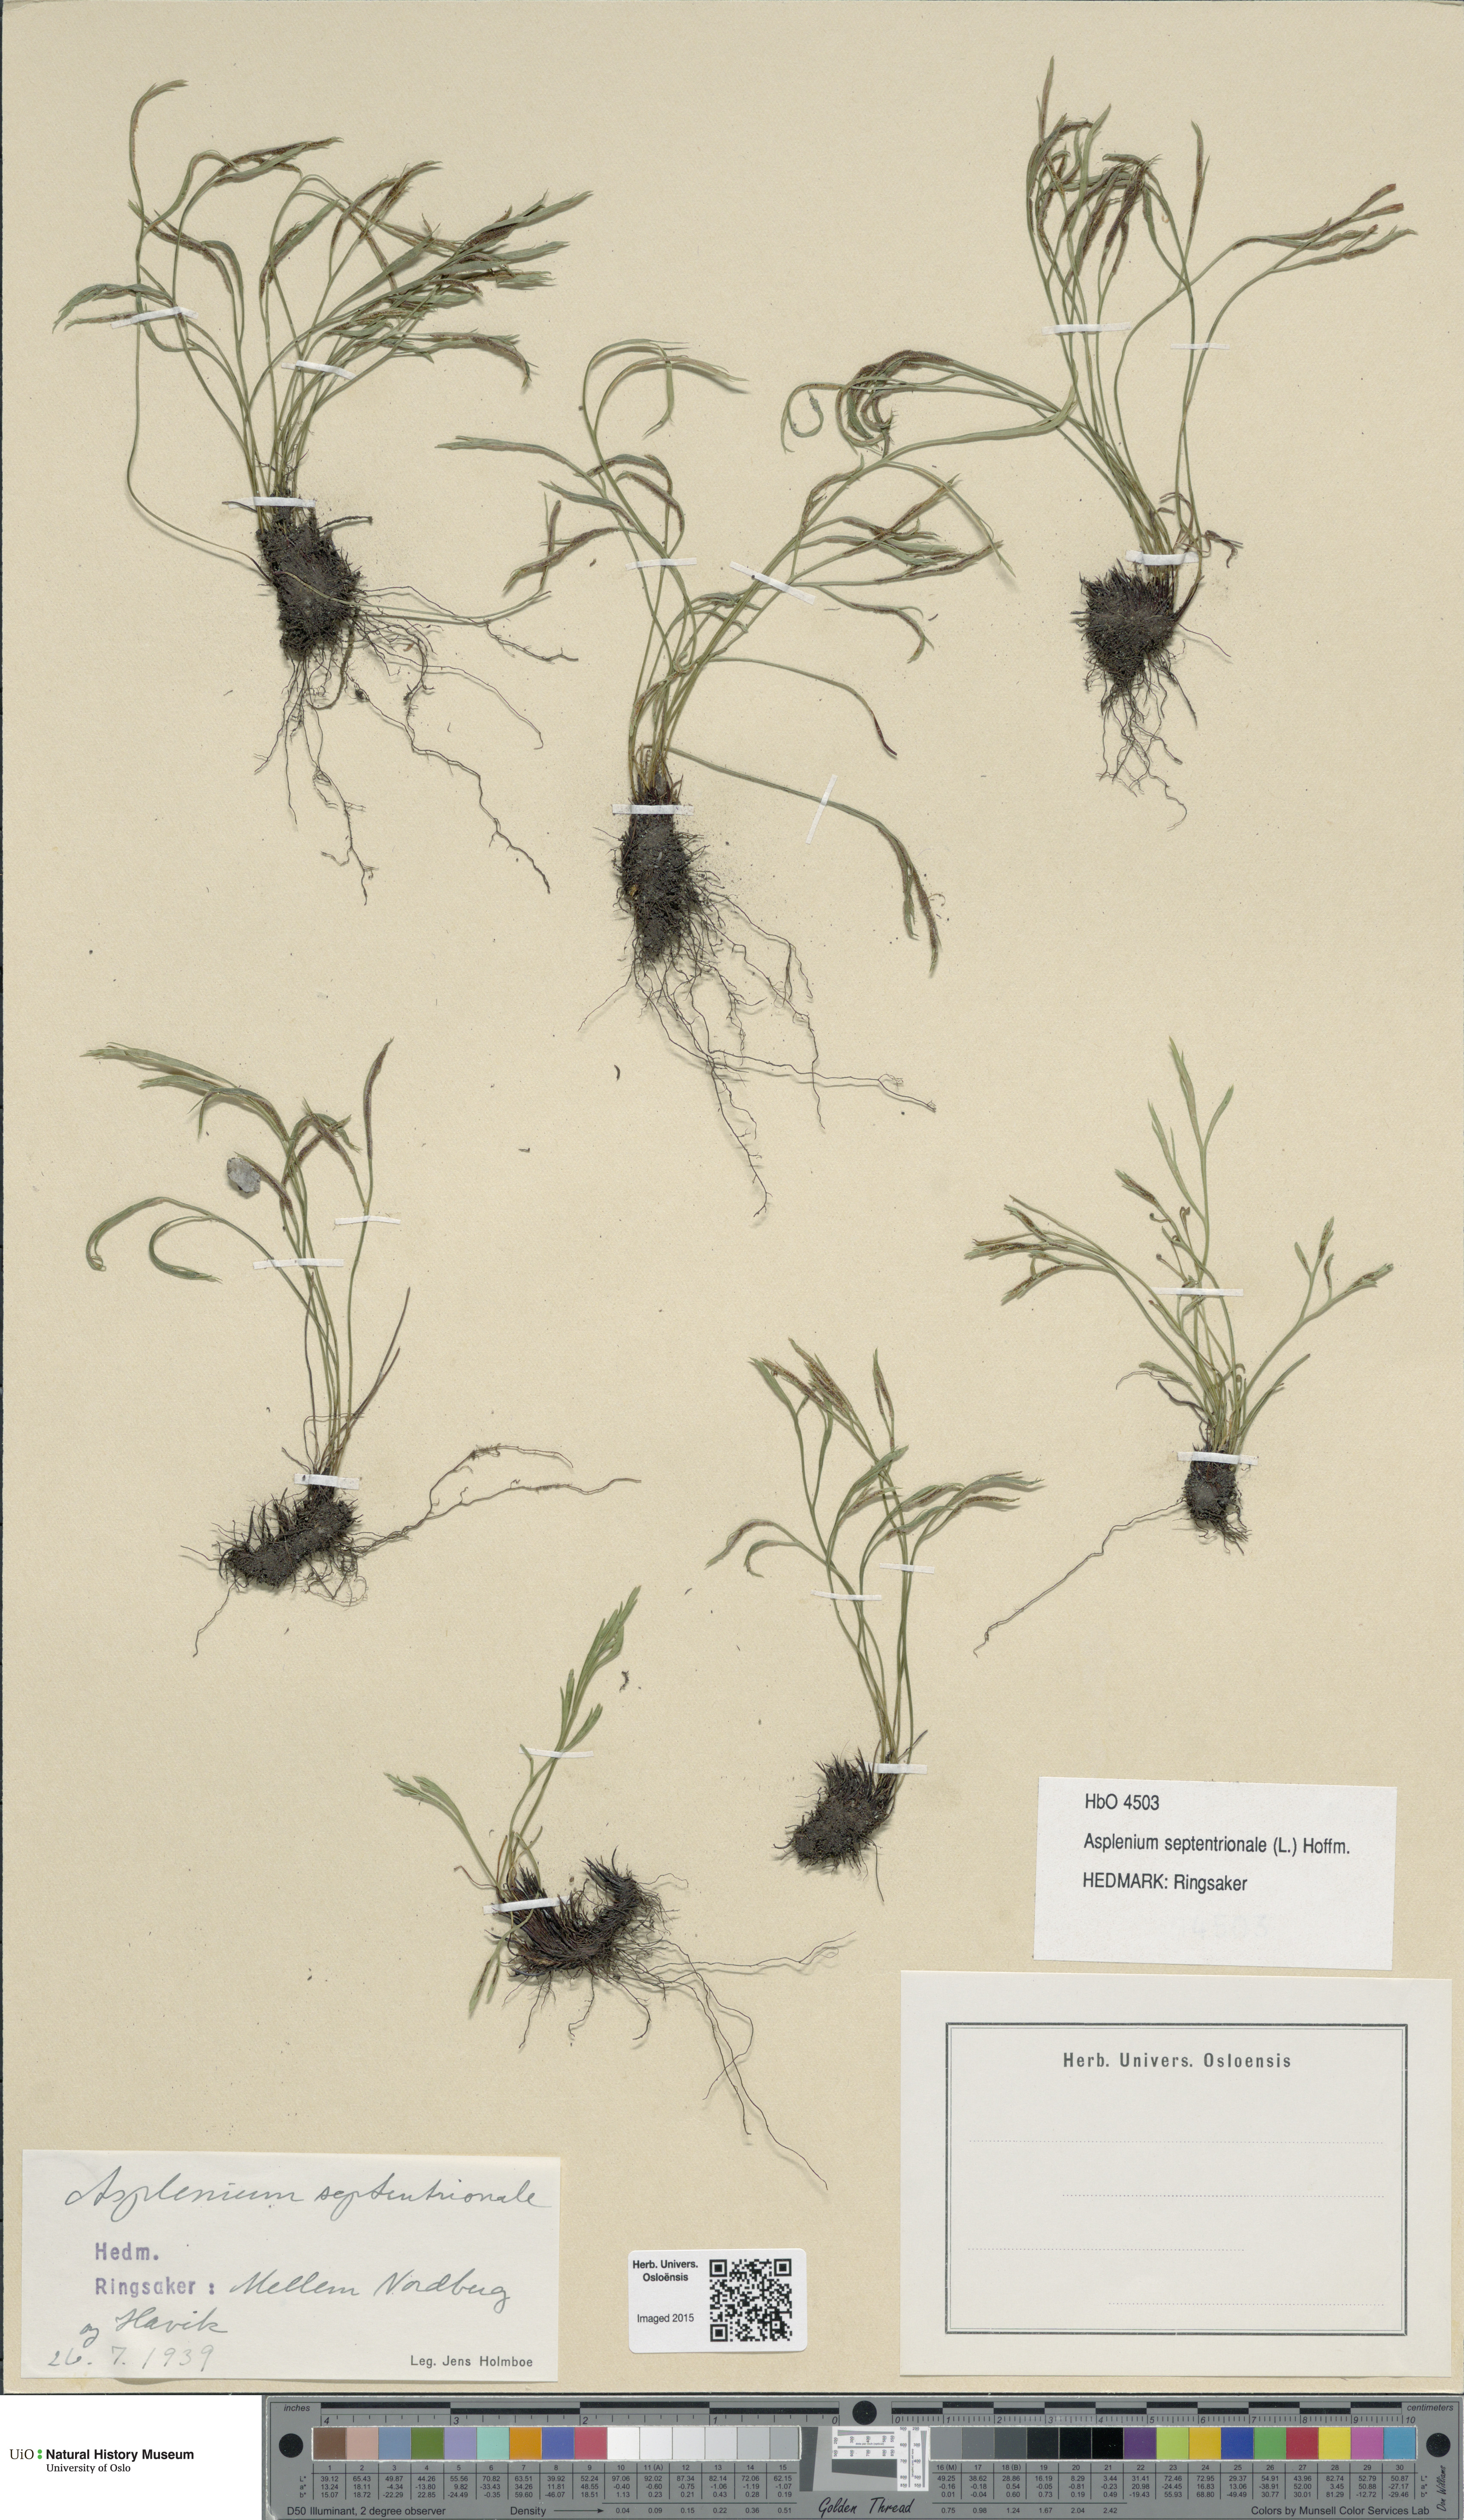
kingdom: Plantae
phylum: Tracheophyta
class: Polypodiopsida
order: Polypodiales
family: Aspleniaceae
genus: Asplenium
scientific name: Asplenium septentrionale
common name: Forked spleenwort
